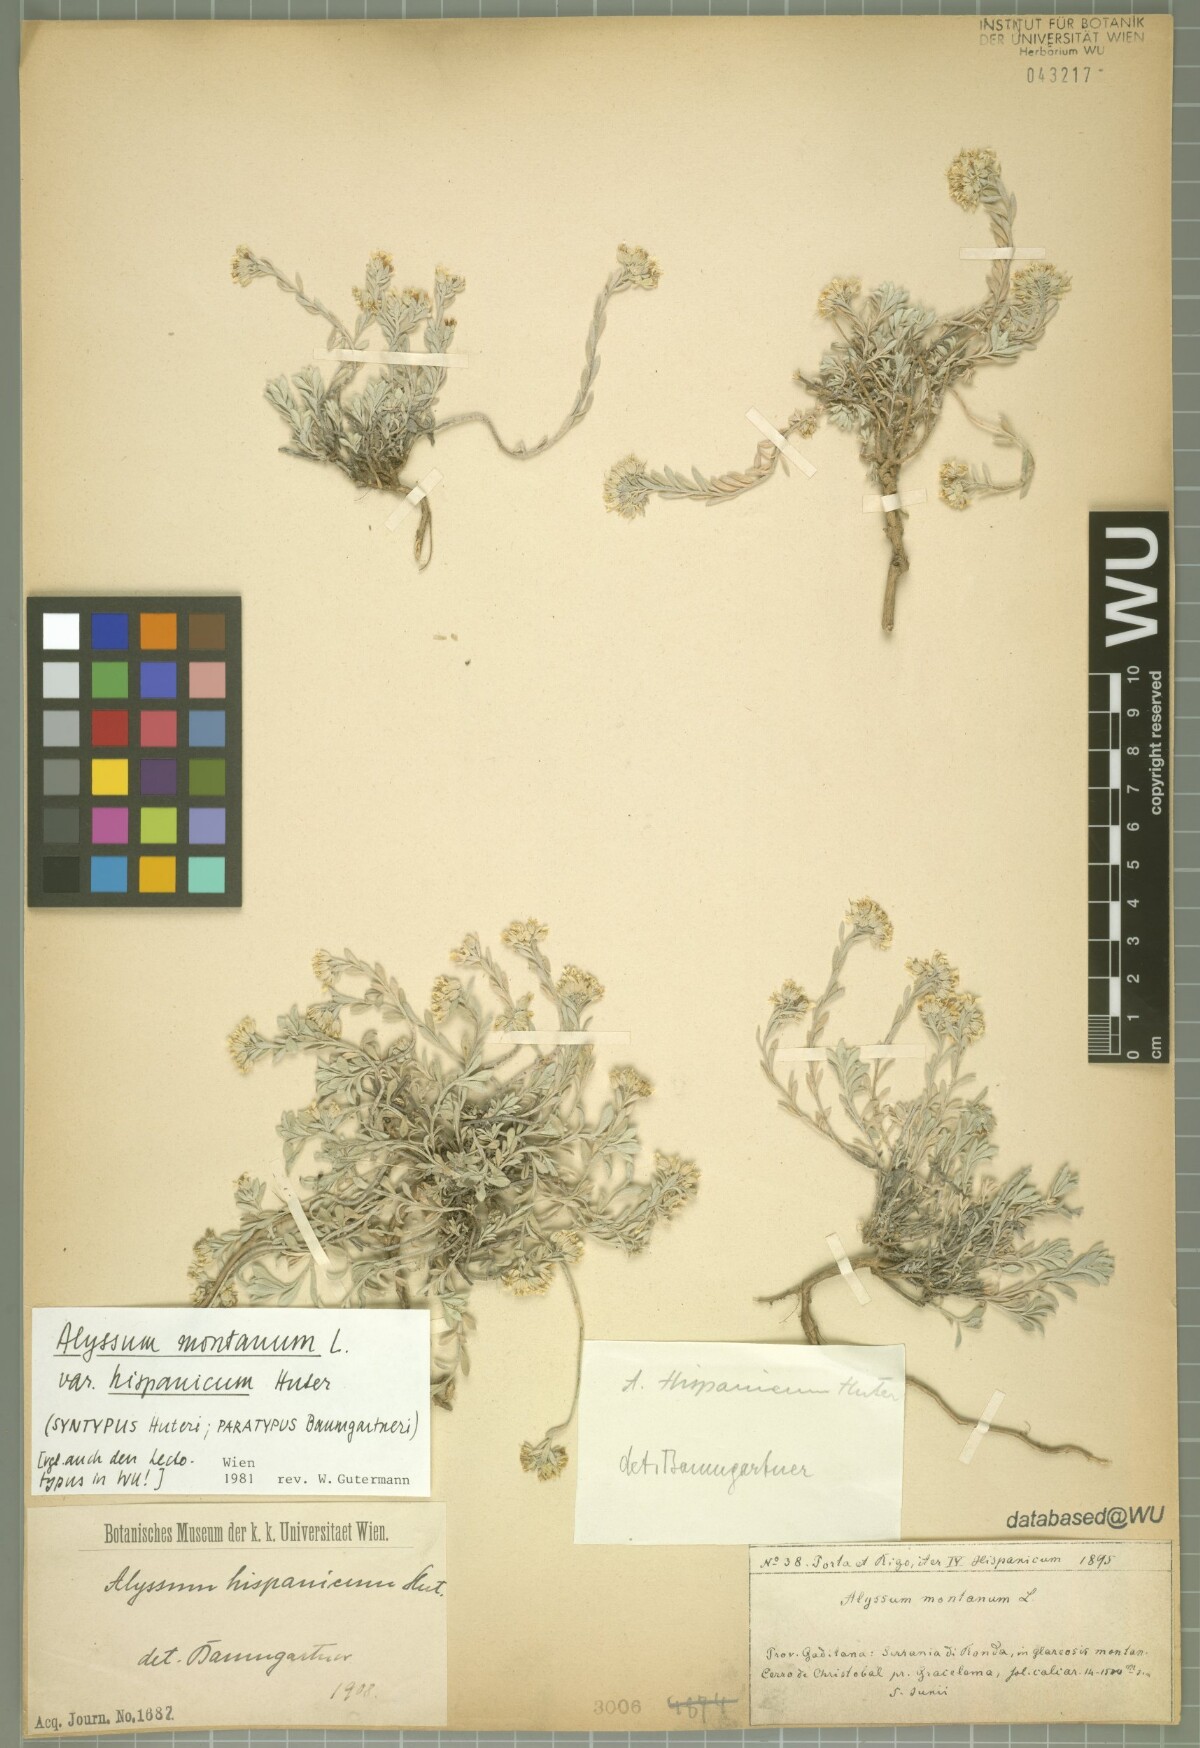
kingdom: Plantae
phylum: Tracheophyta
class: Magnoliopsida
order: Brassicales
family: Brassicaceae
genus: Alyssum
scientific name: Alyssum fastigiatum
